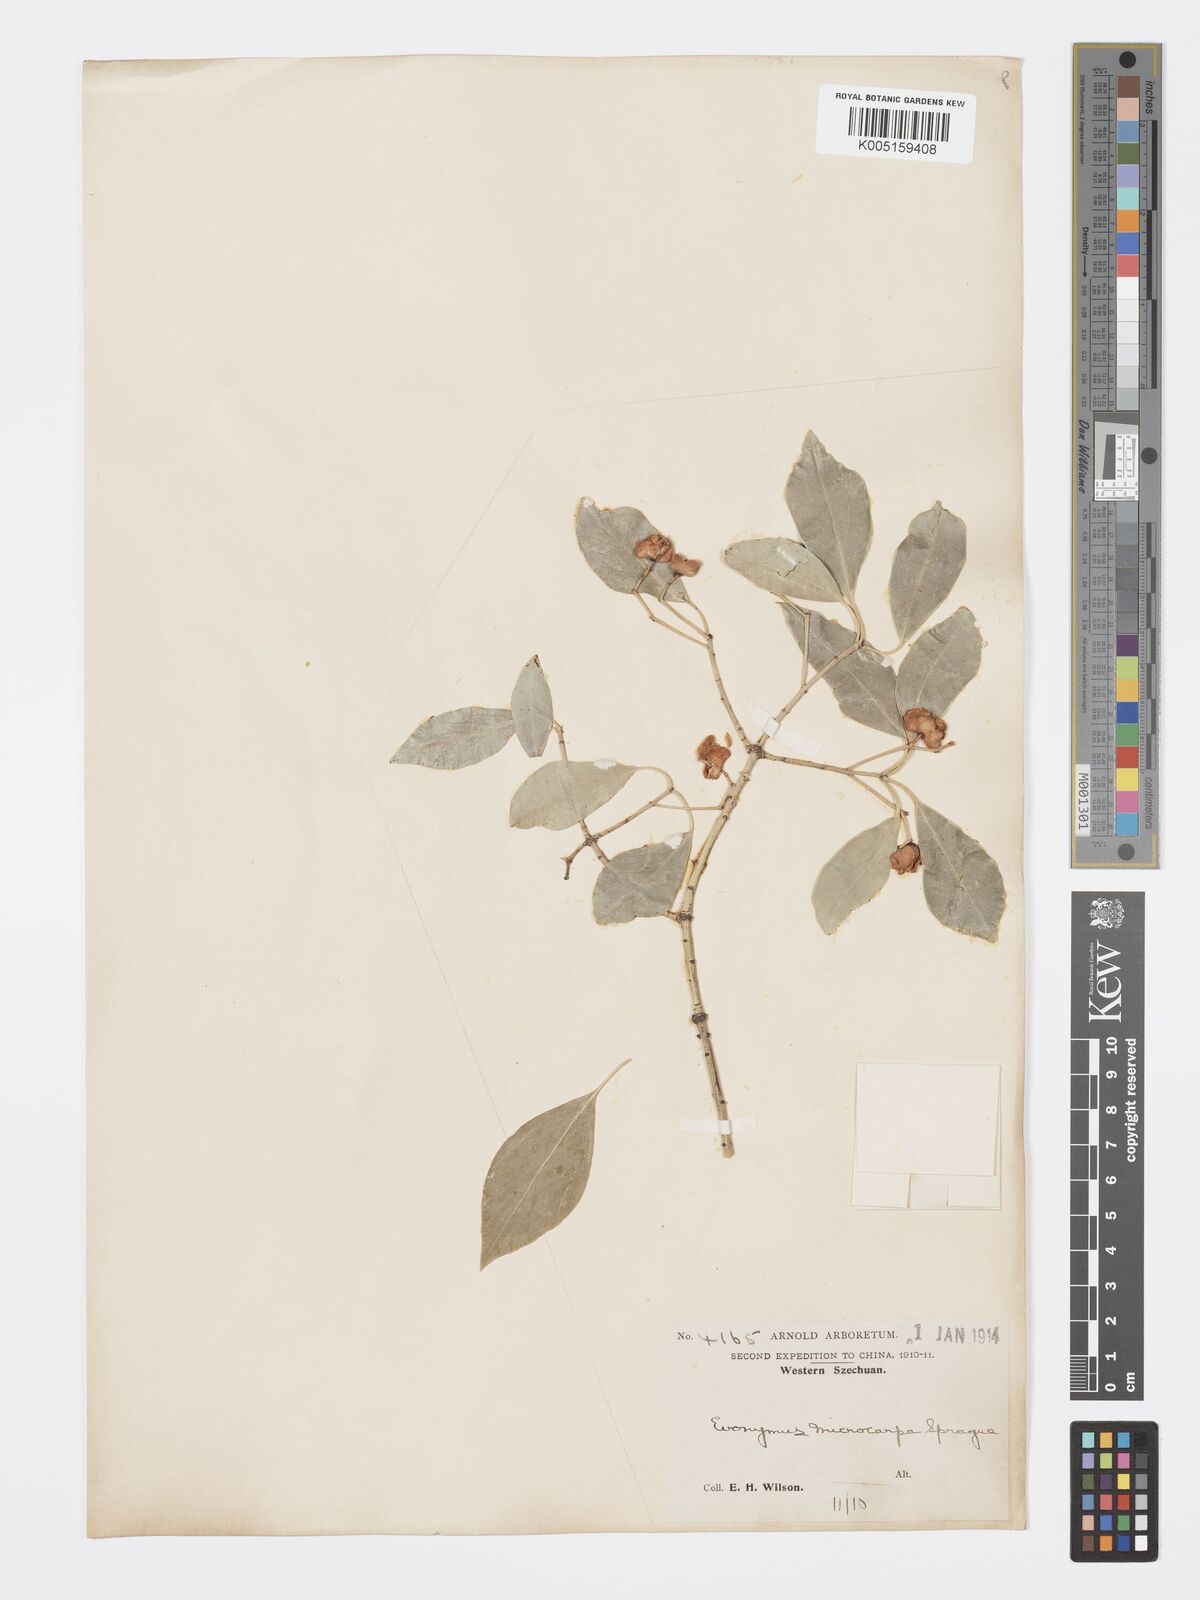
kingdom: Plantae
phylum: Tracheophyta
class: Magnoliopsida
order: Celastrales
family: Celastraceae
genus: Euonymus
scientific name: Euonymus
